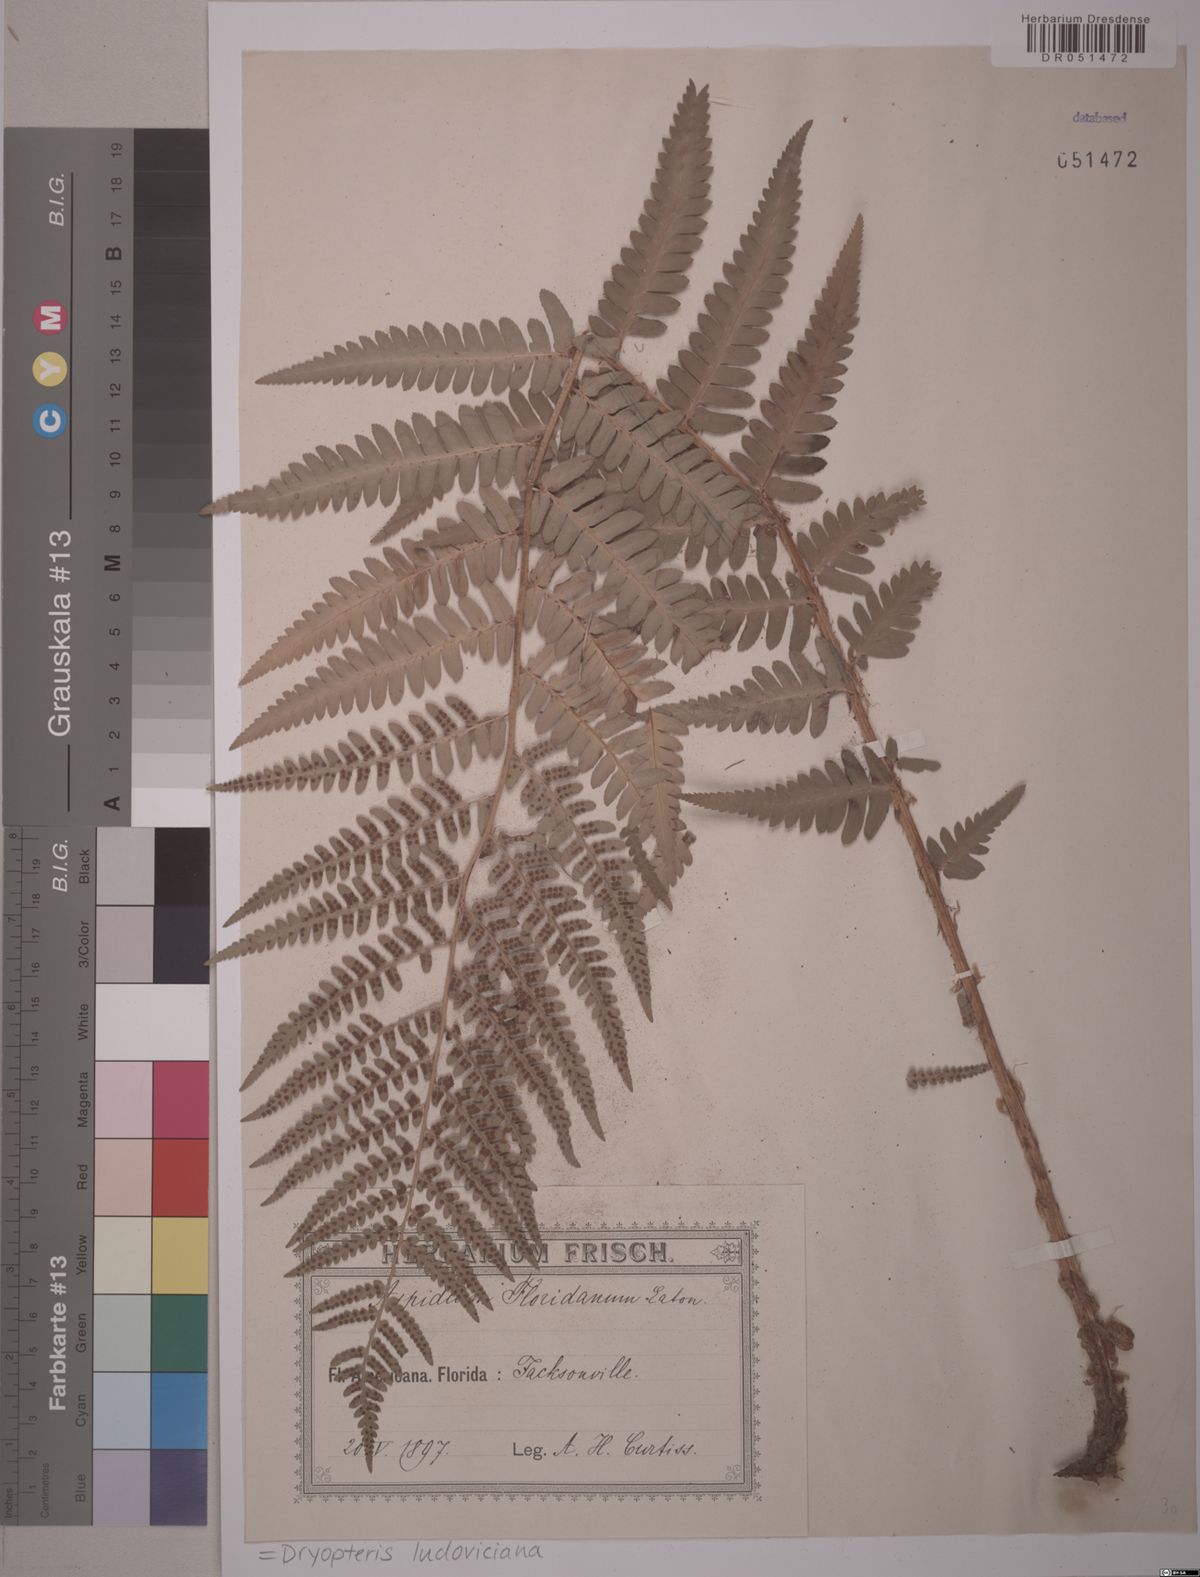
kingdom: Plantae
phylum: Tracheophyta
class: Polypodiopsida
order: Polypodiales
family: Dryopteridaceae
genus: Dryopteris
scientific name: Dryopteris ludoviciana
